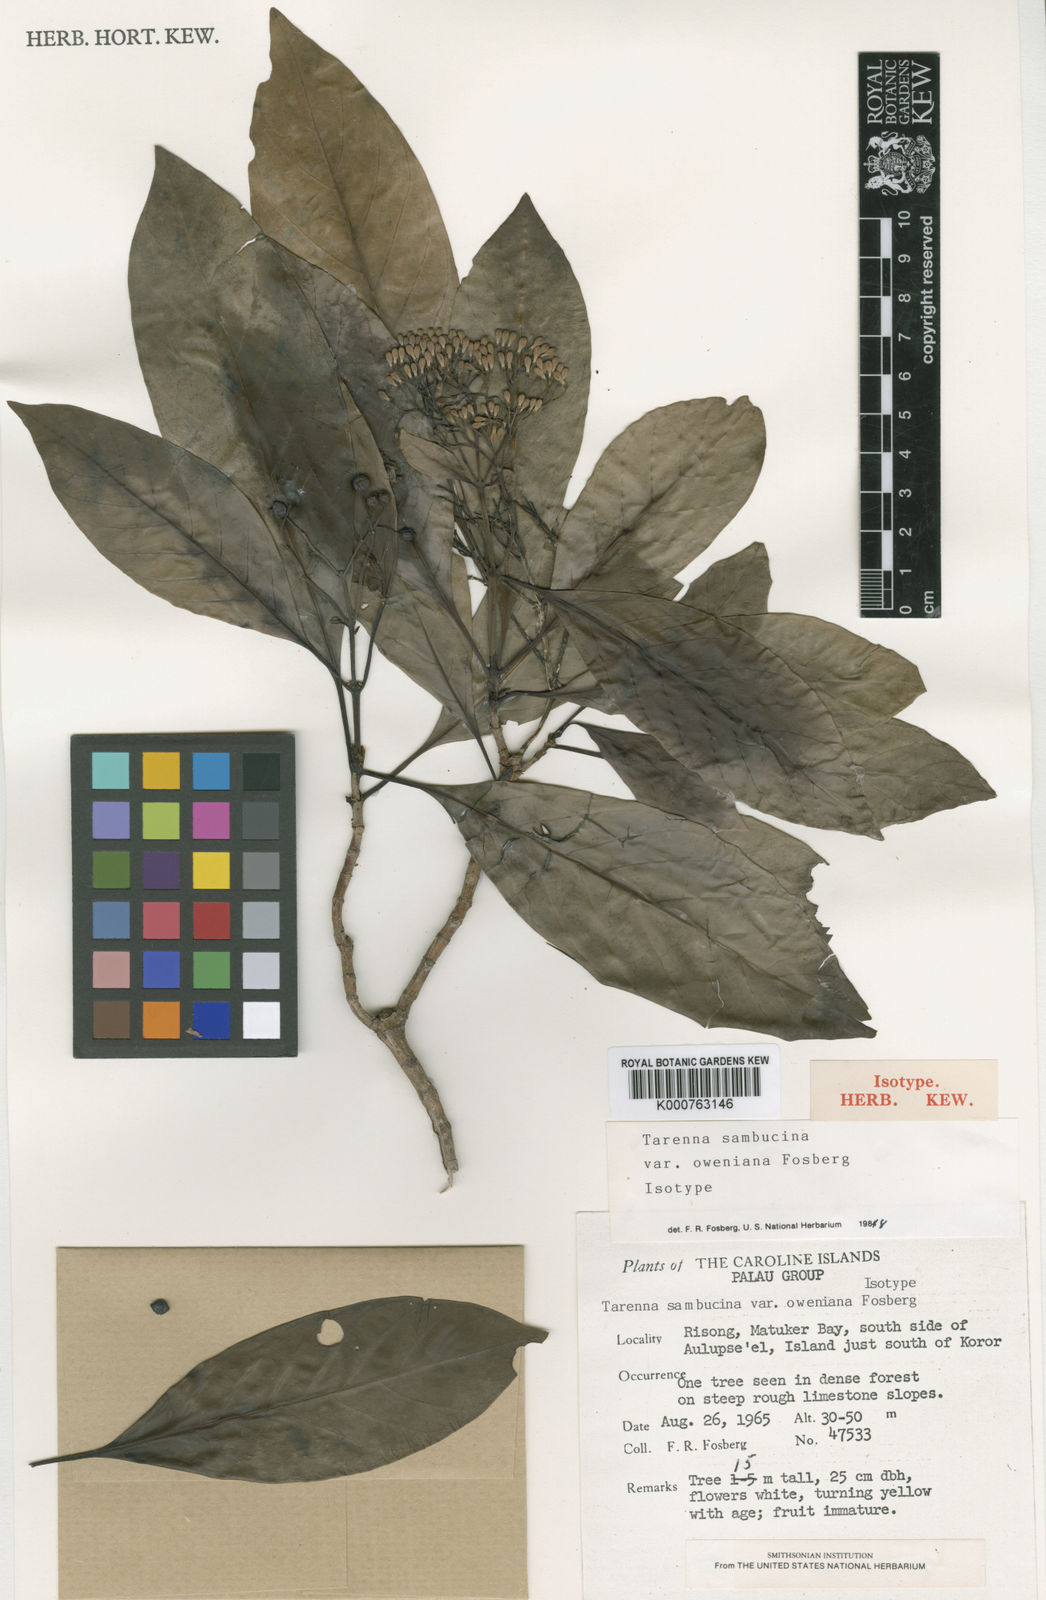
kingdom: Plantae
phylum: Tracheophyta
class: Magnoliopsida
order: Gentianales
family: Rubiaceae
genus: Tarenna
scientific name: Tarenna sambucina
